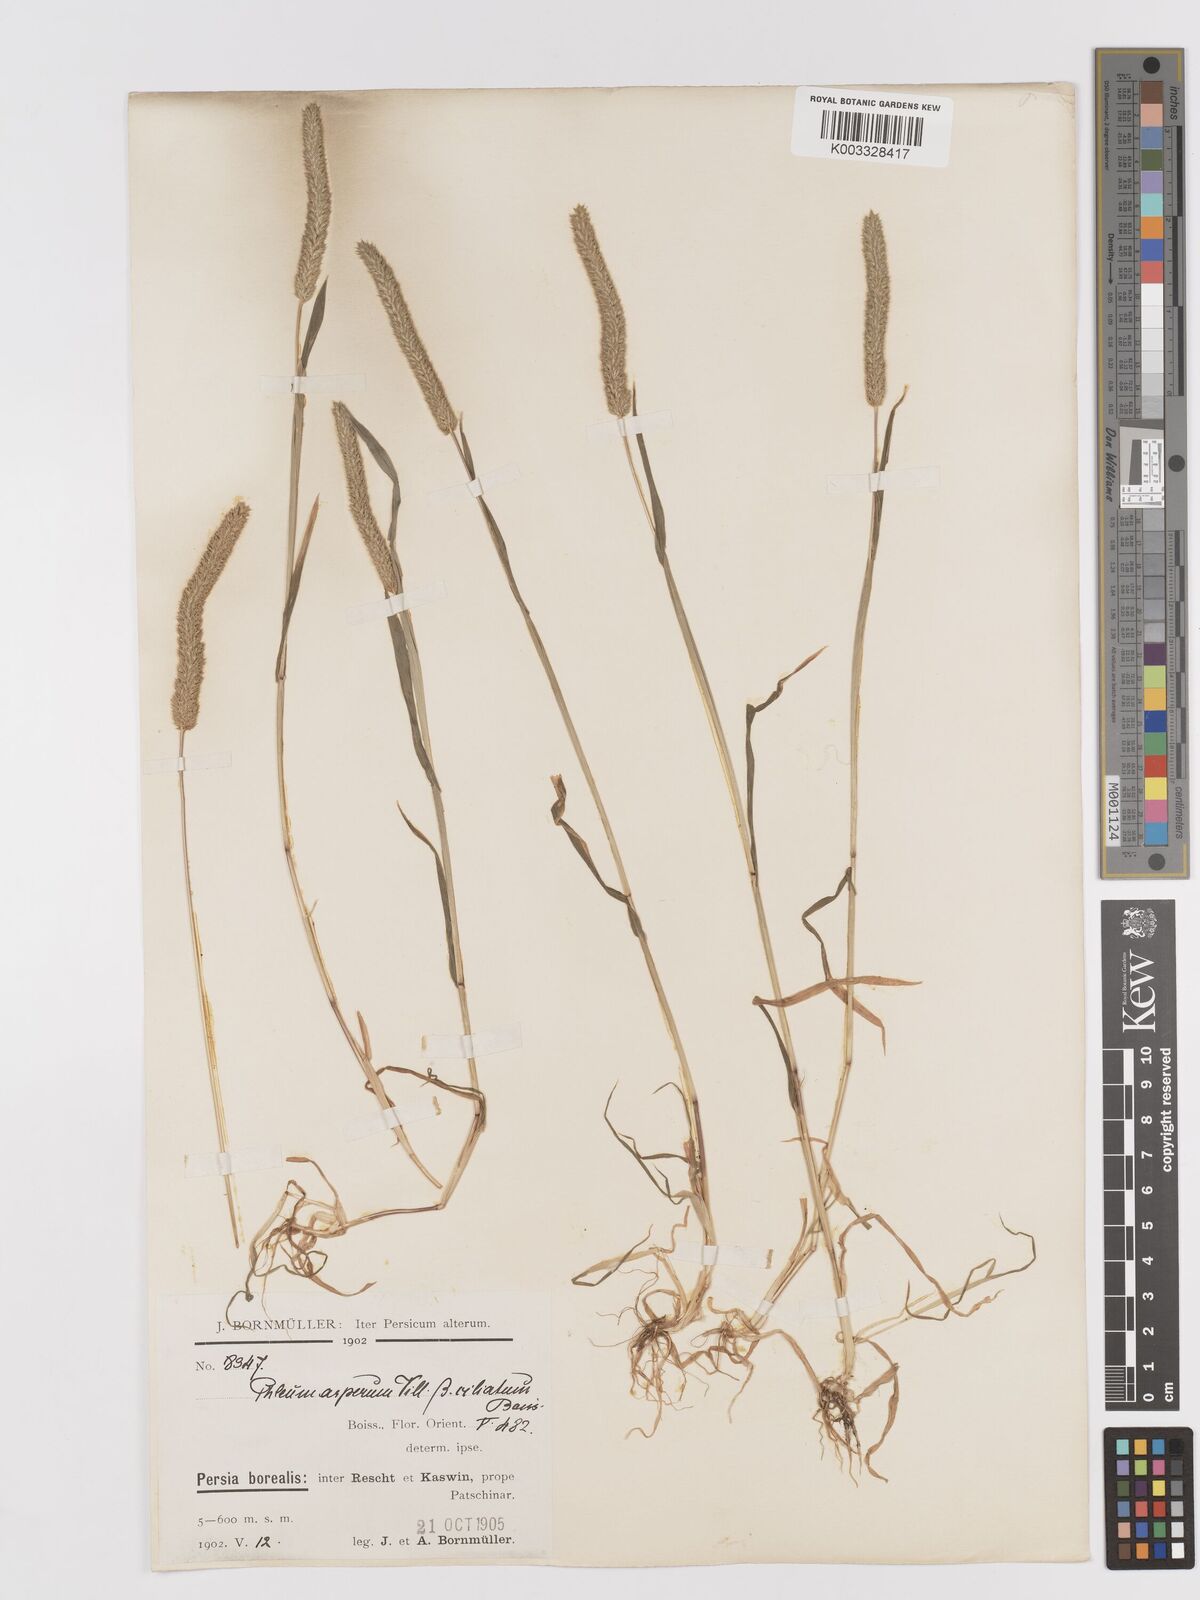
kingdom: Plantae
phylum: Tracheophyta
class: Liliopsida
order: Poales
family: Poaceae
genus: Phleum
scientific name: Phleum paniculatum
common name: British timothy
